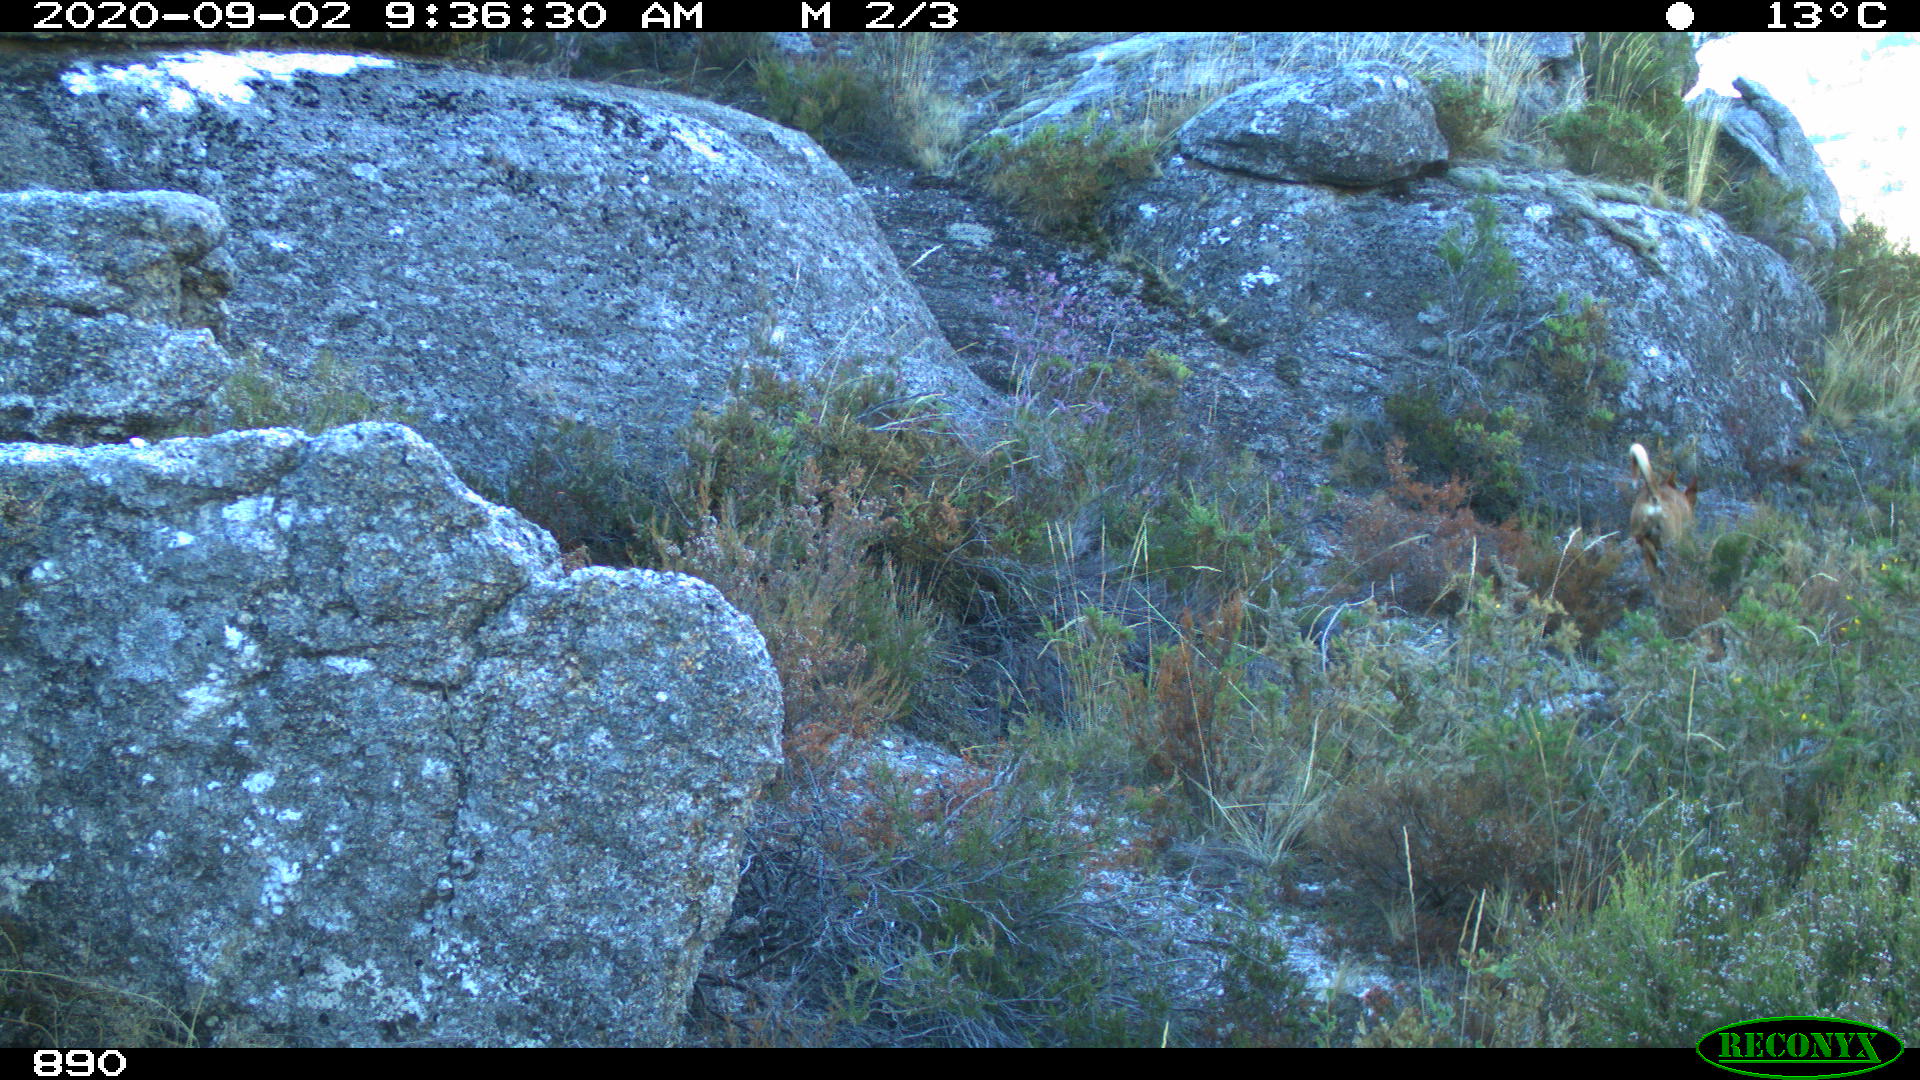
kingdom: Animalia
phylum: Chordata
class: Mammalia
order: Carnivora
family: Canidae
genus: Canis
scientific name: Canis lupus
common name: Gray wolf
